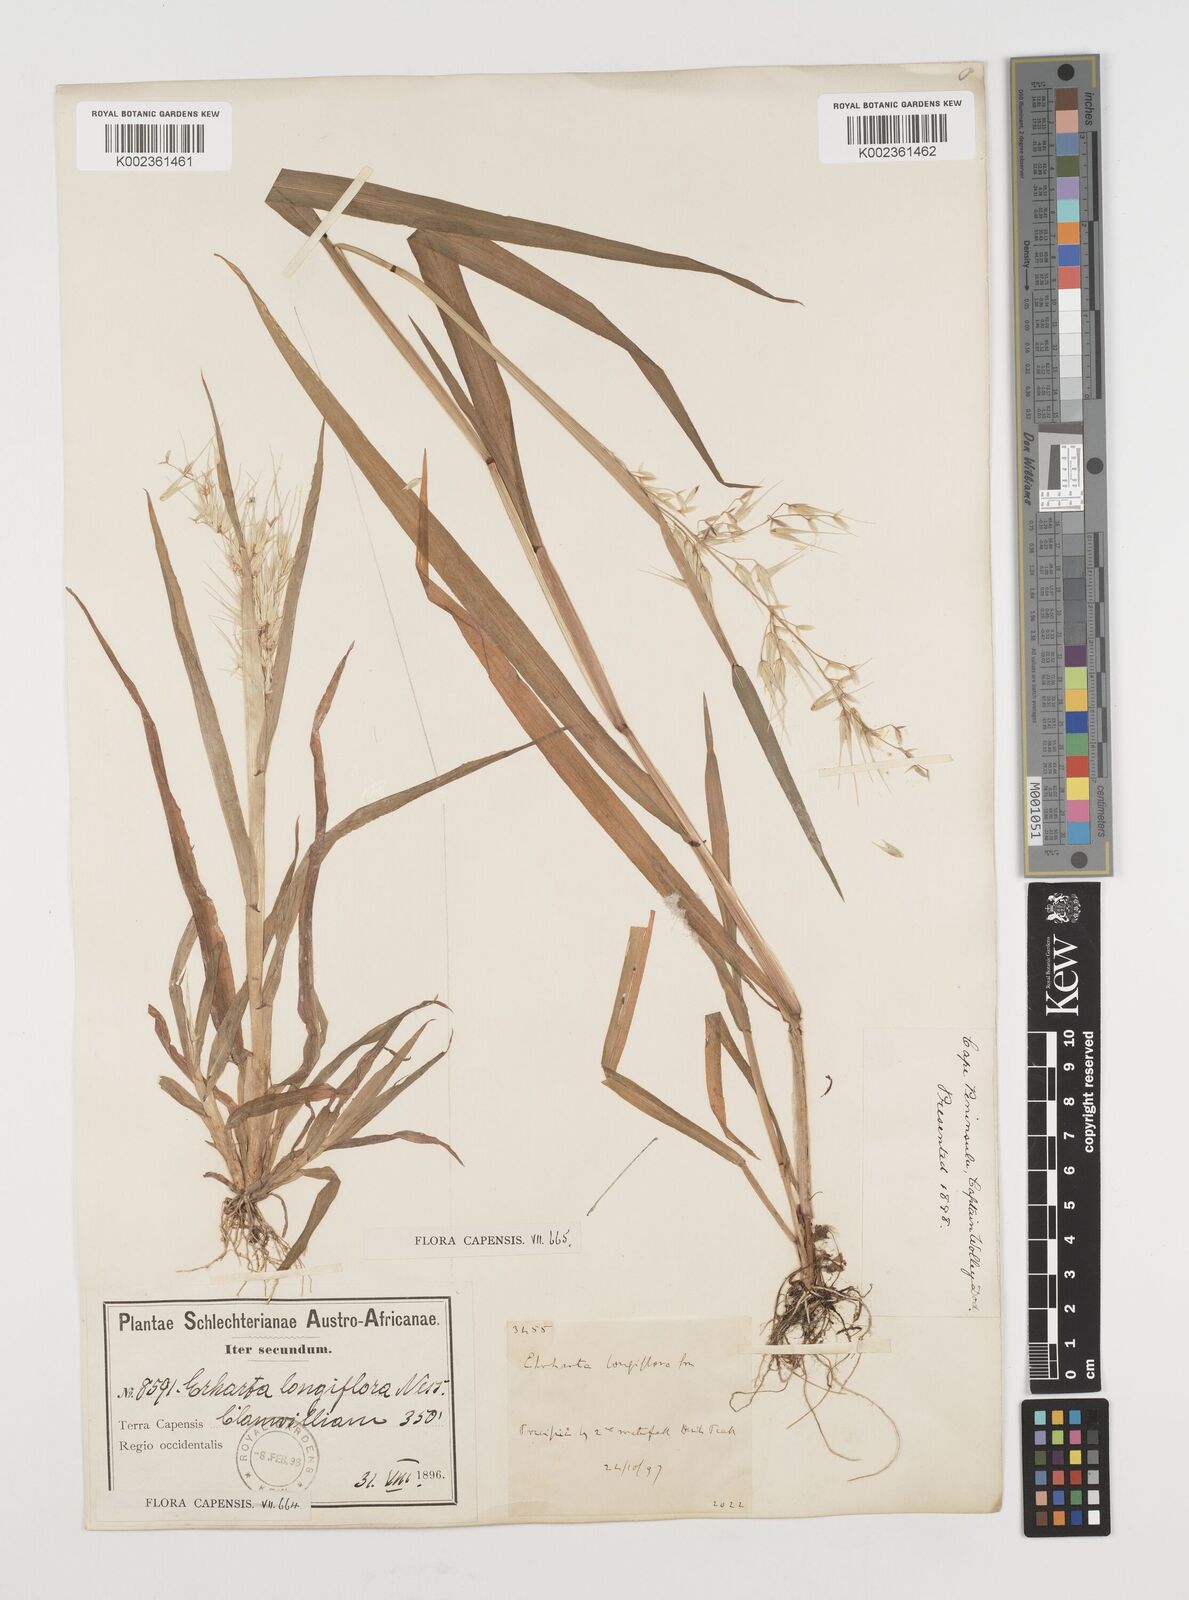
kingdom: Plantae
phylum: Tracheophyta
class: Liliopsida
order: Poales
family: Poaceae
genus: Ehrharta
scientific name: Ehrharta longiflora
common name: Longflowered veldtgrass
